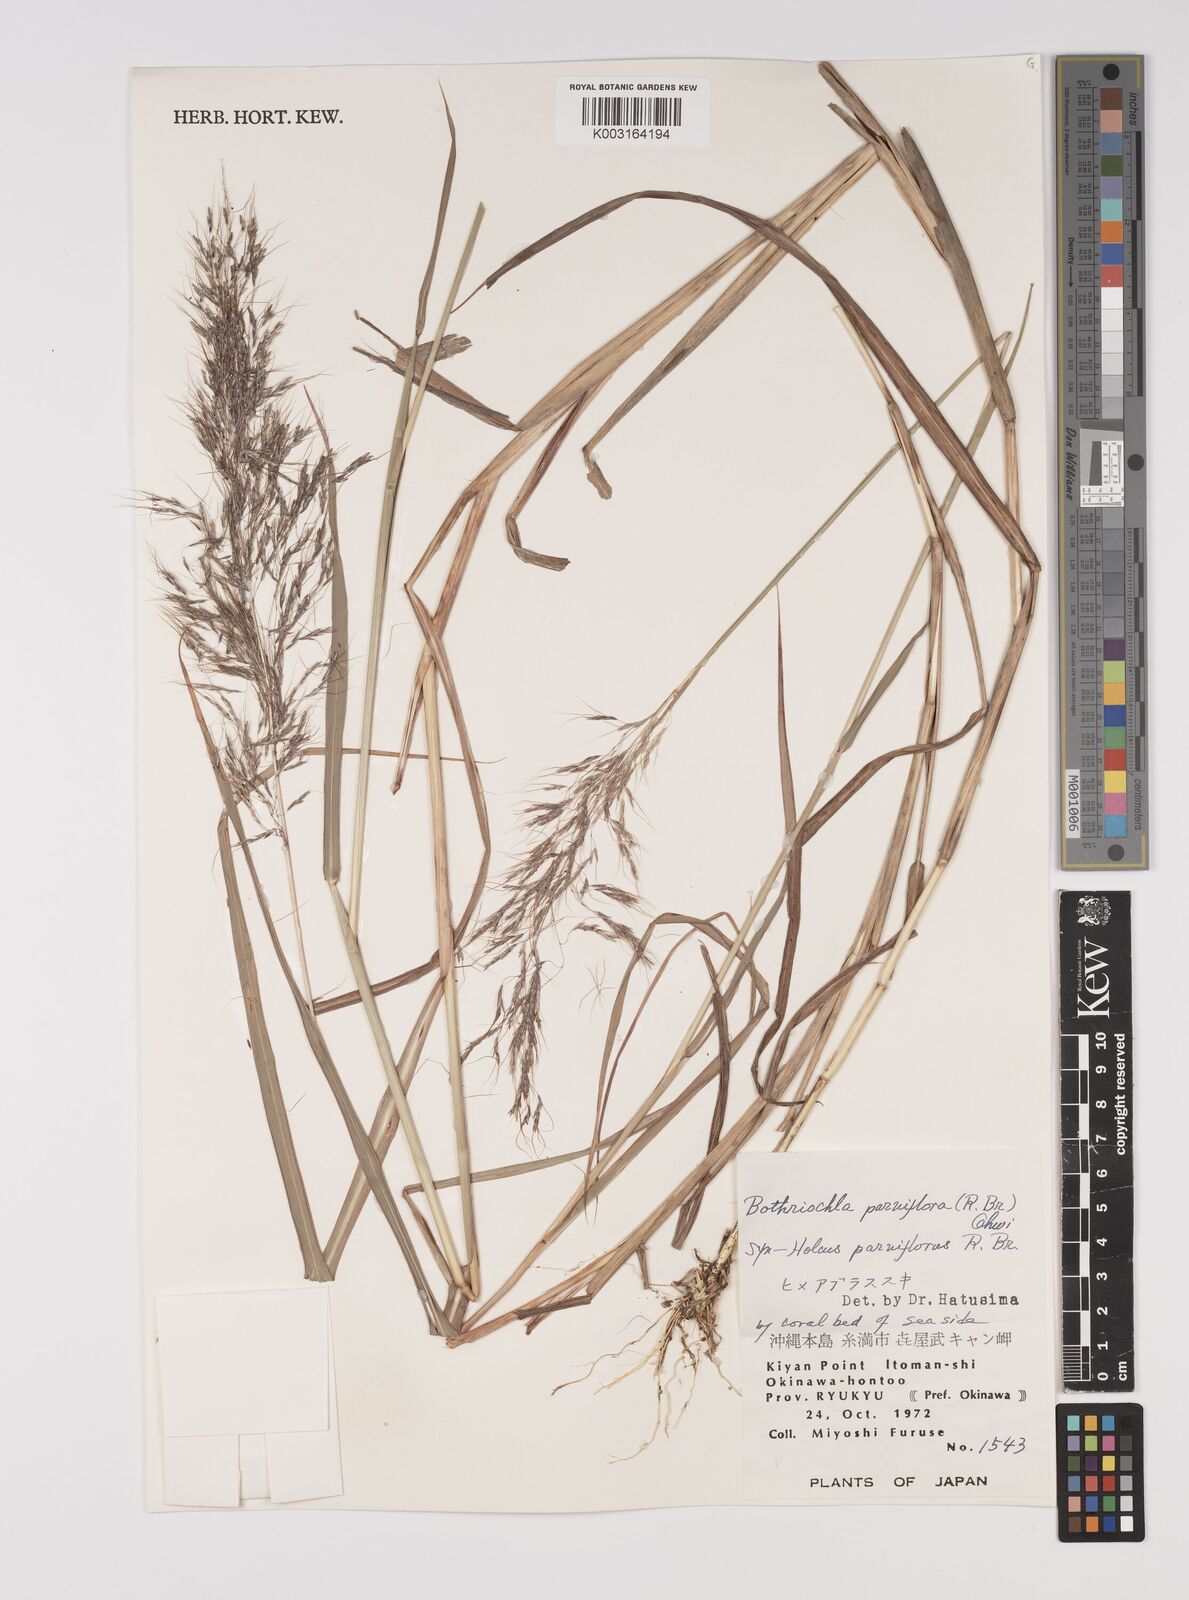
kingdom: Plantae
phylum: Tracheophyta
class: Liliopsida
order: Poales
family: Poaceae
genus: Capillipedium
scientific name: Capillipedium parviflorum
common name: Golden-beard
